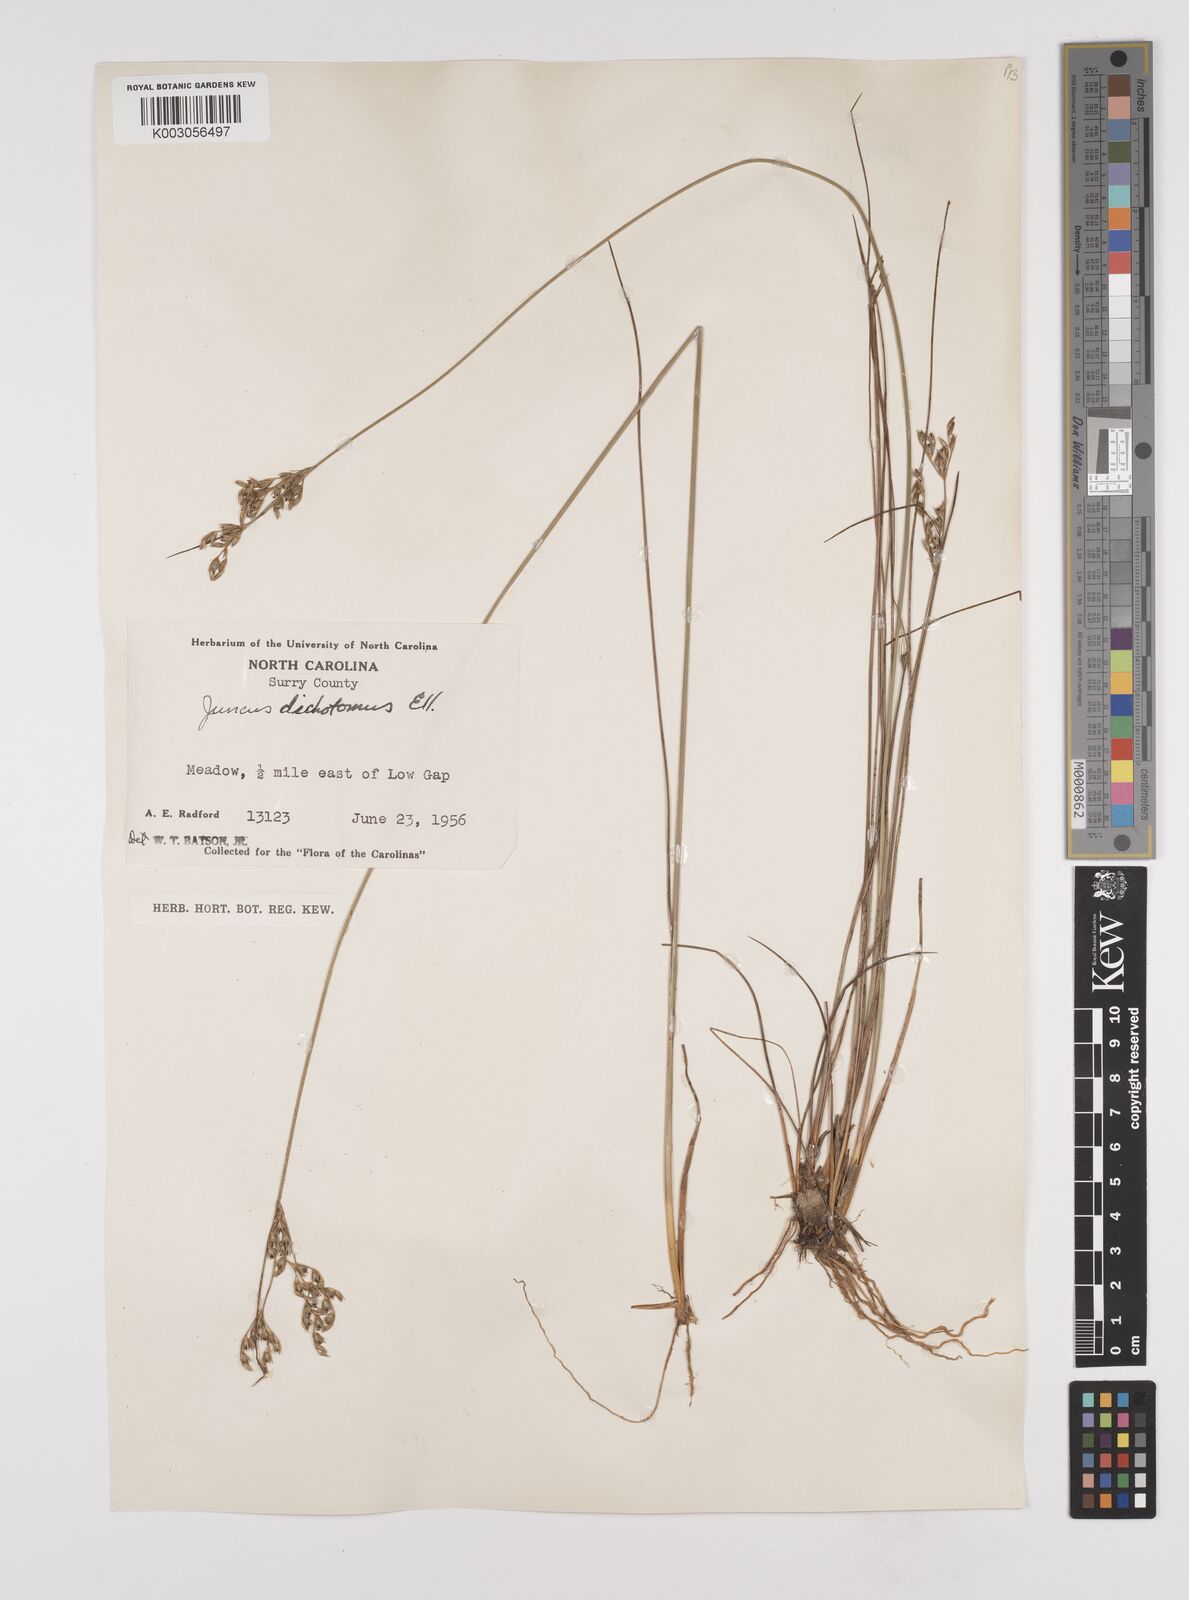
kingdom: Plantae
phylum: Tracheophyta
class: Liliopsida
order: Poales
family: Juncaceae
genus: Juncus
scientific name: Juncus dichotomus
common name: Forked rush
